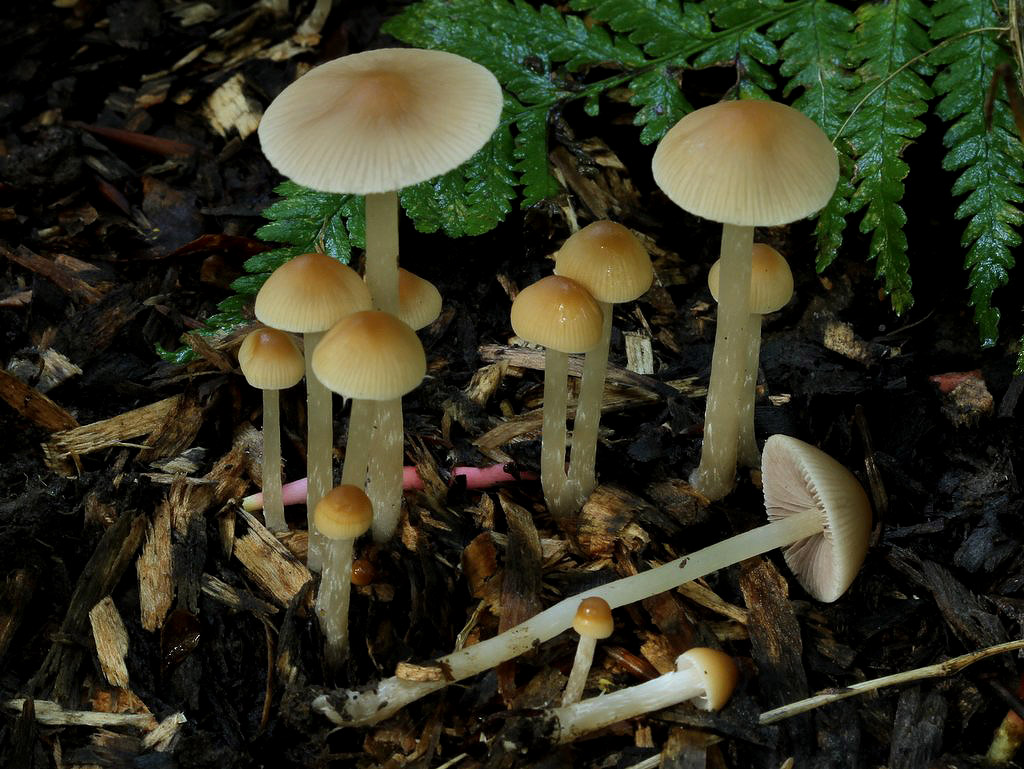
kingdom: Fungi
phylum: Basidiomycota
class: Agaricomycetes
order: Agaricales
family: Psathyrellaceae
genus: Psathyrella
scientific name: Psathyrella corrugis
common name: rødægget mørkhat
